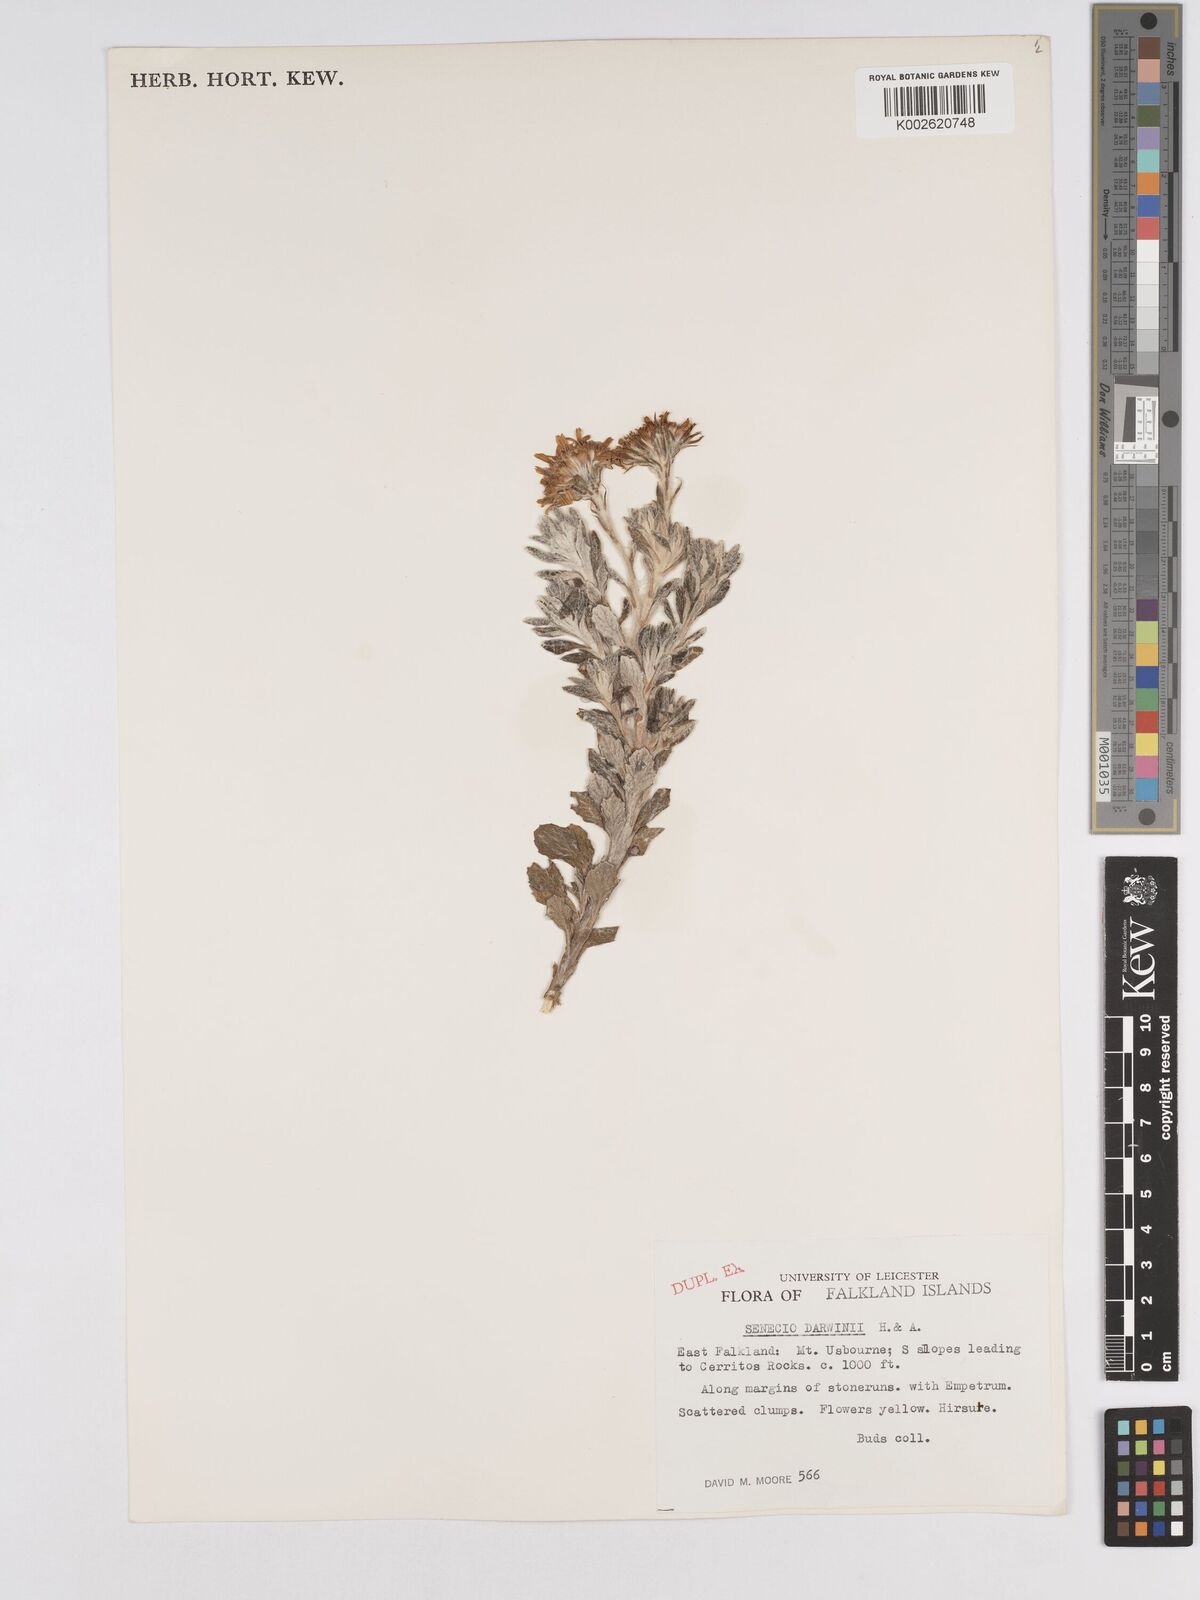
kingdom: Plantae
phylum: Tracheophyta
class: Magnoliopsida
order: Asterales
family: Asteraceae
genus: Senecio
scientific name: Senecio darwinii
